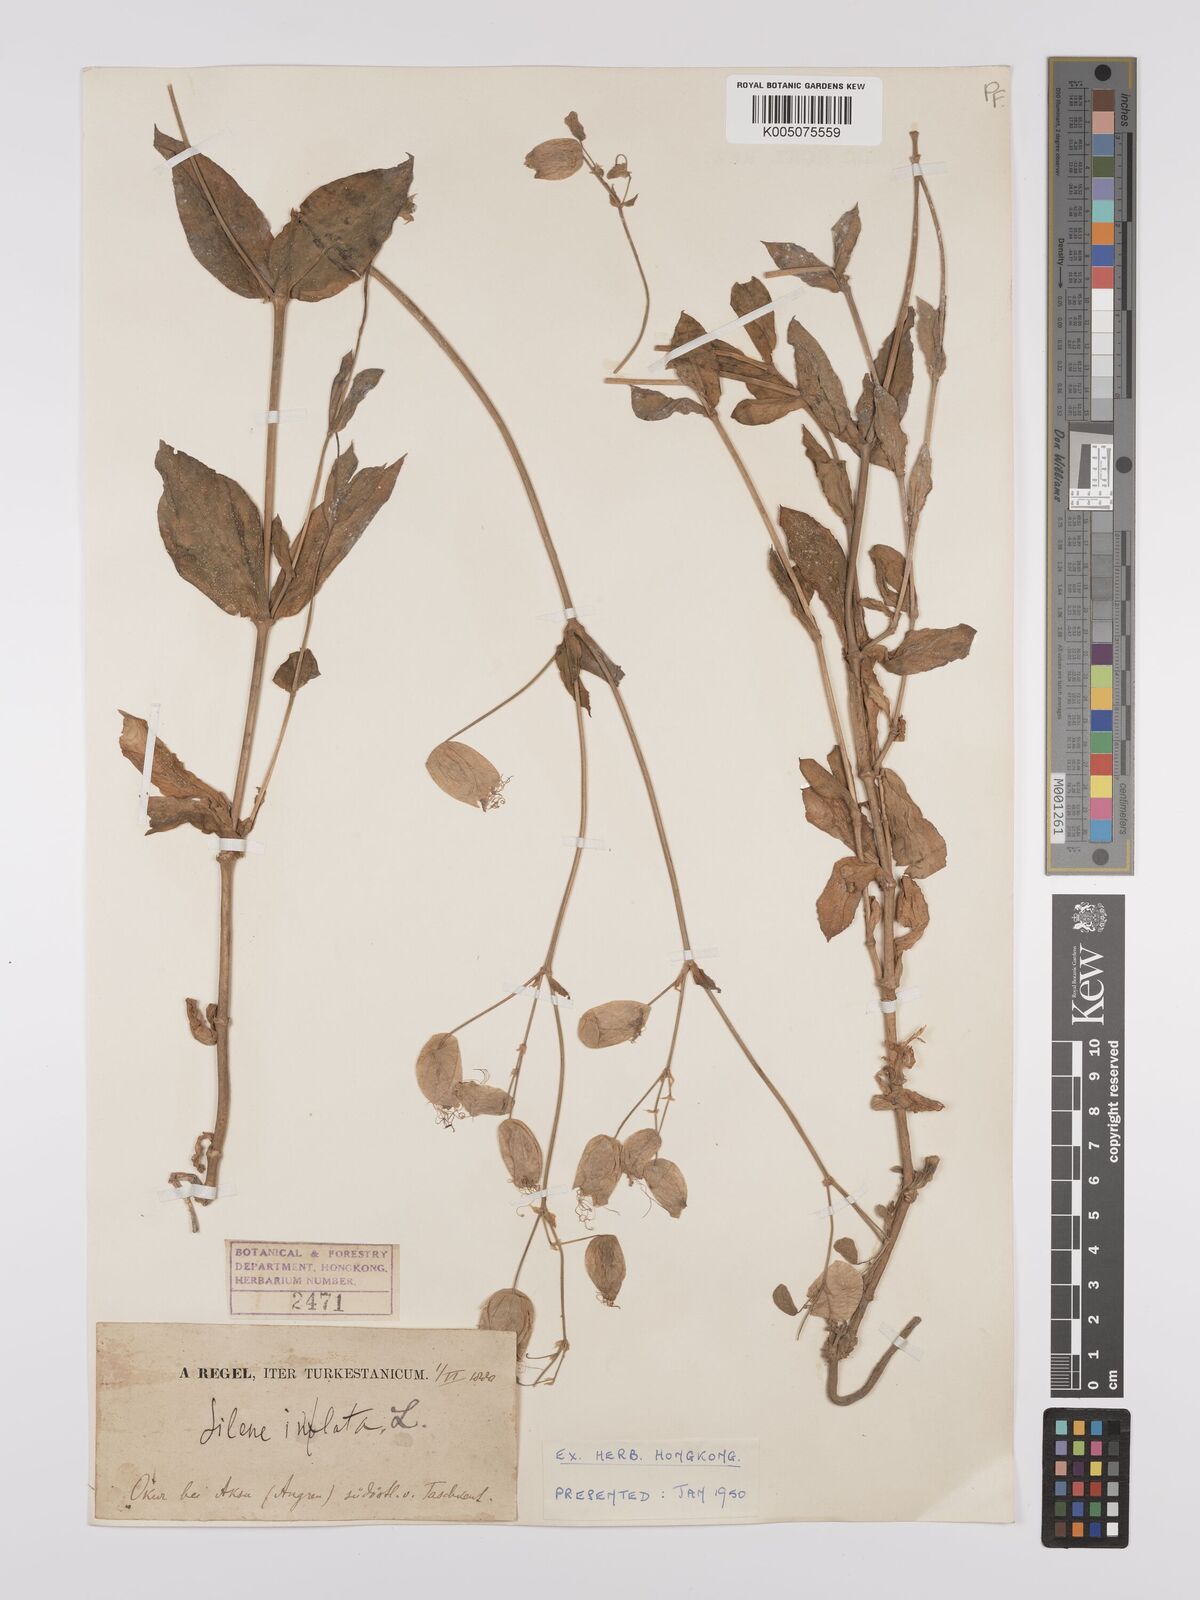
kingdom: Plantae
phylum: Tracheophyta
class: Magnoliopsida
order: Caryophyllales
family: Caryophyllaceae
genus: Silene
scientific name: Silene vulgaris
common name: Bladder campion
